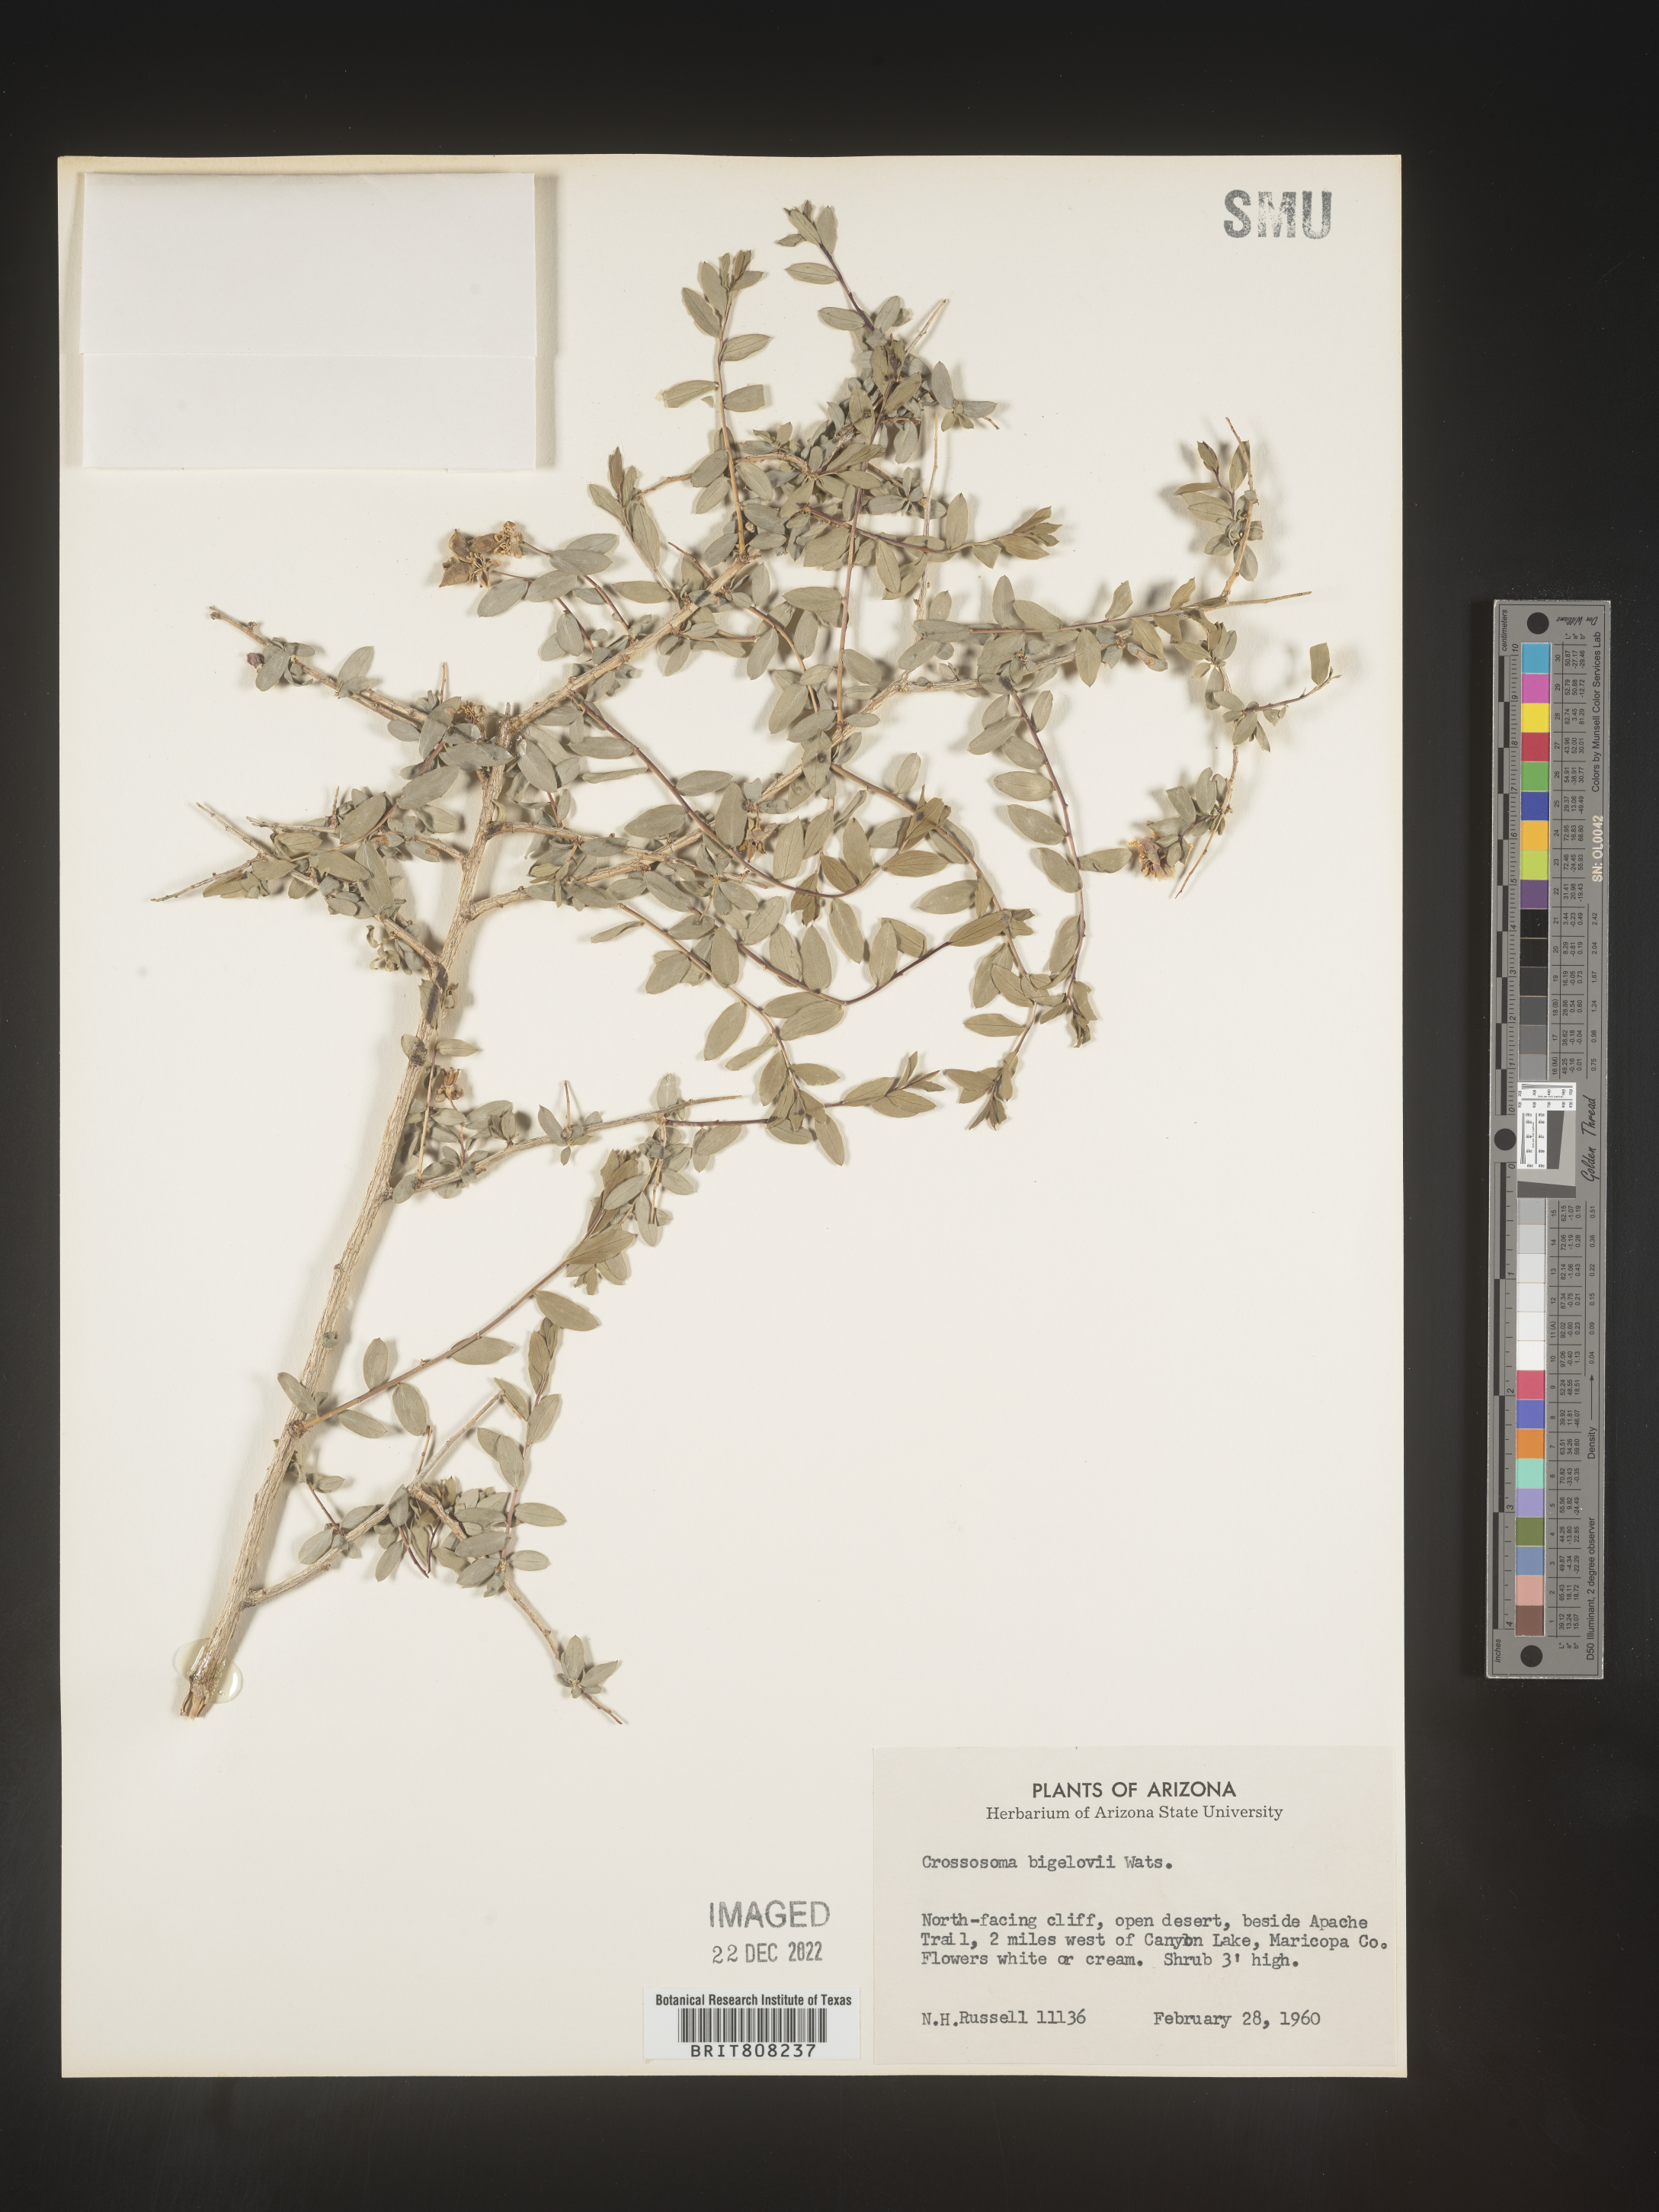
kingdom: Plantae
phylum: Tracheophyta
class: Magnoliopsida
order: Crossosomatales
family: Crossosomataceae
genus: Crossosoma
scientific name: Crossosoma bigelovii
